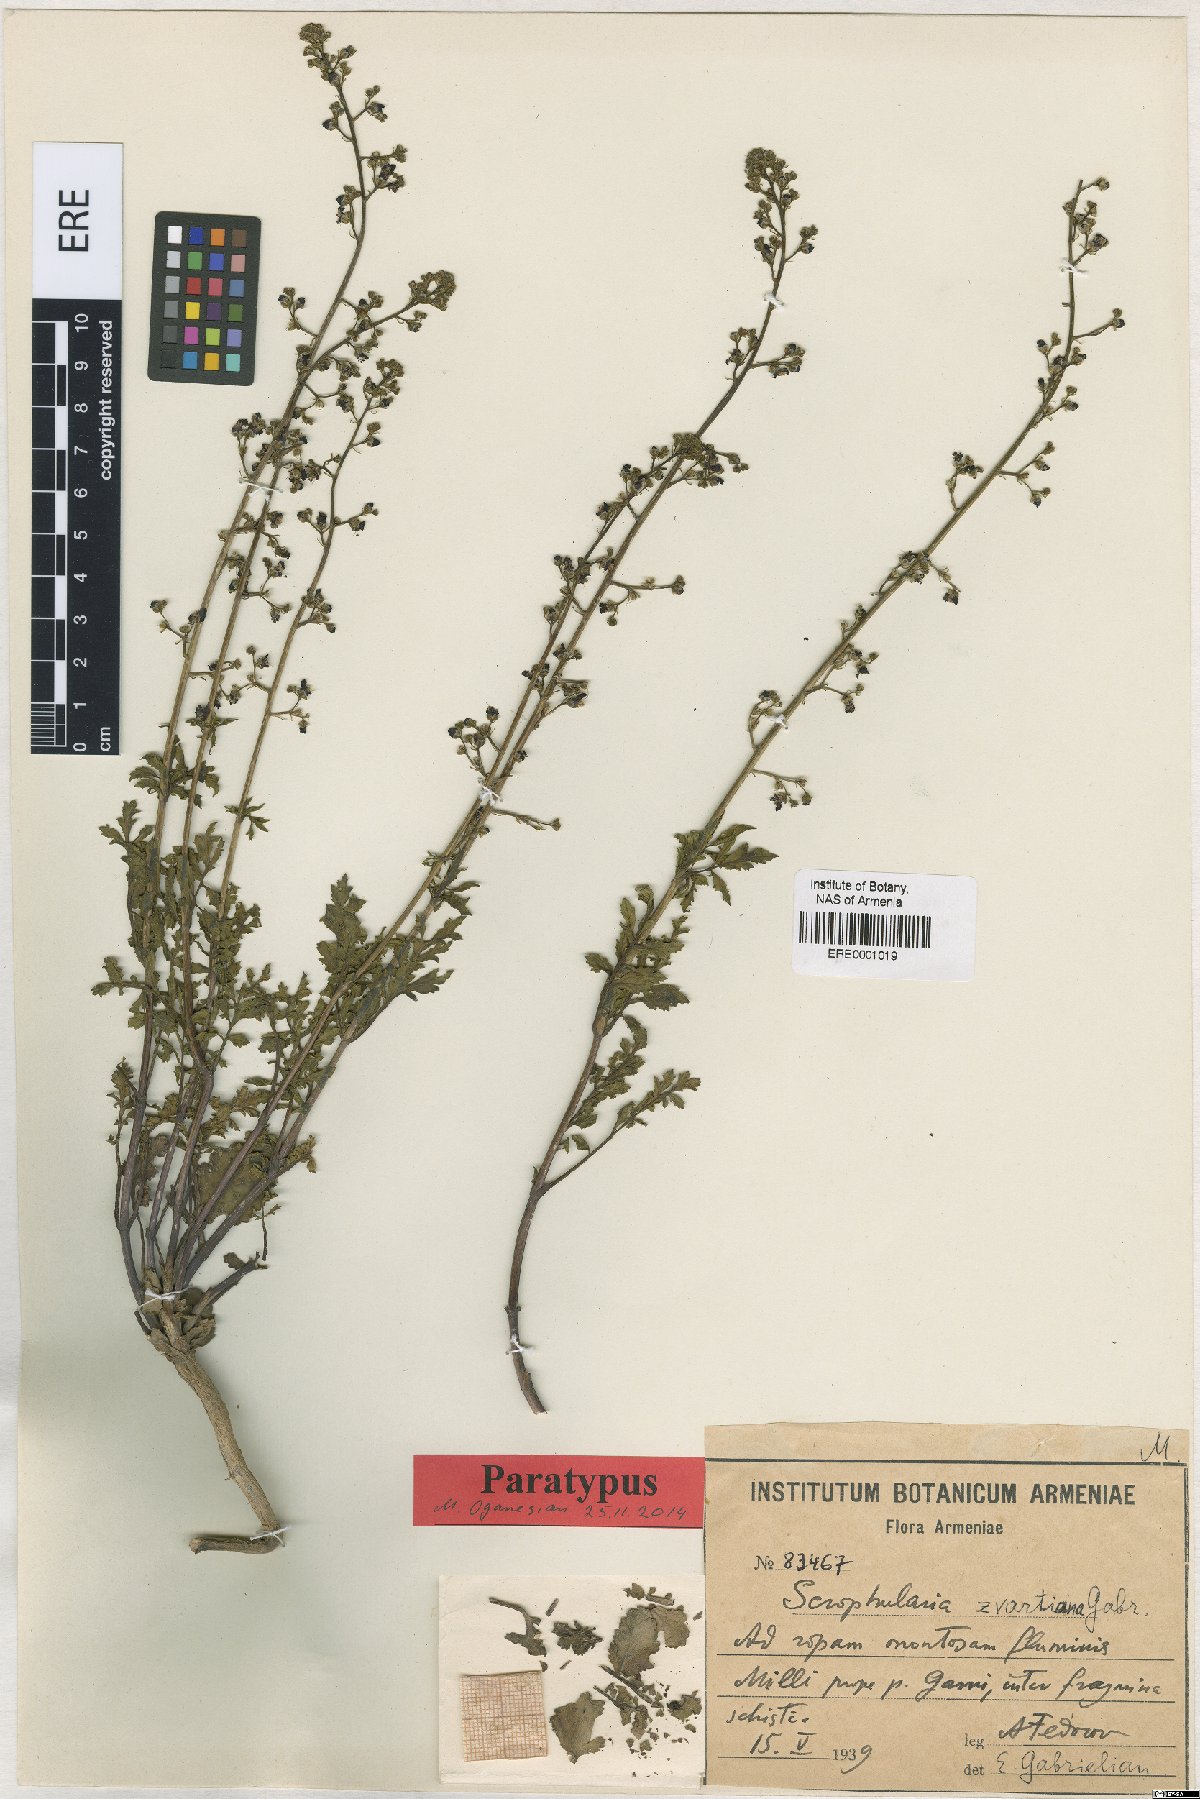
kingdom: Plantae
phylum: Tracheophyta
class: Magnoliopsida
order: Lamiales
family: Scrophulariaceae
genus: Scrophularia
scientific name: Scrophularia zvartiana
